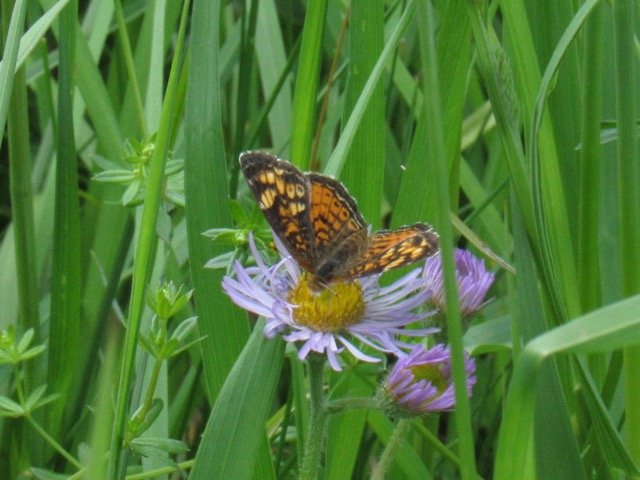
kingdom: Animalia
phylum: Arthropoda
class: Insecta
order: Lepidoptera
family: Nymphalidae
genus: Phyciodes
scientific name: Phyciodes tharos
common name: Pearl Crescent
